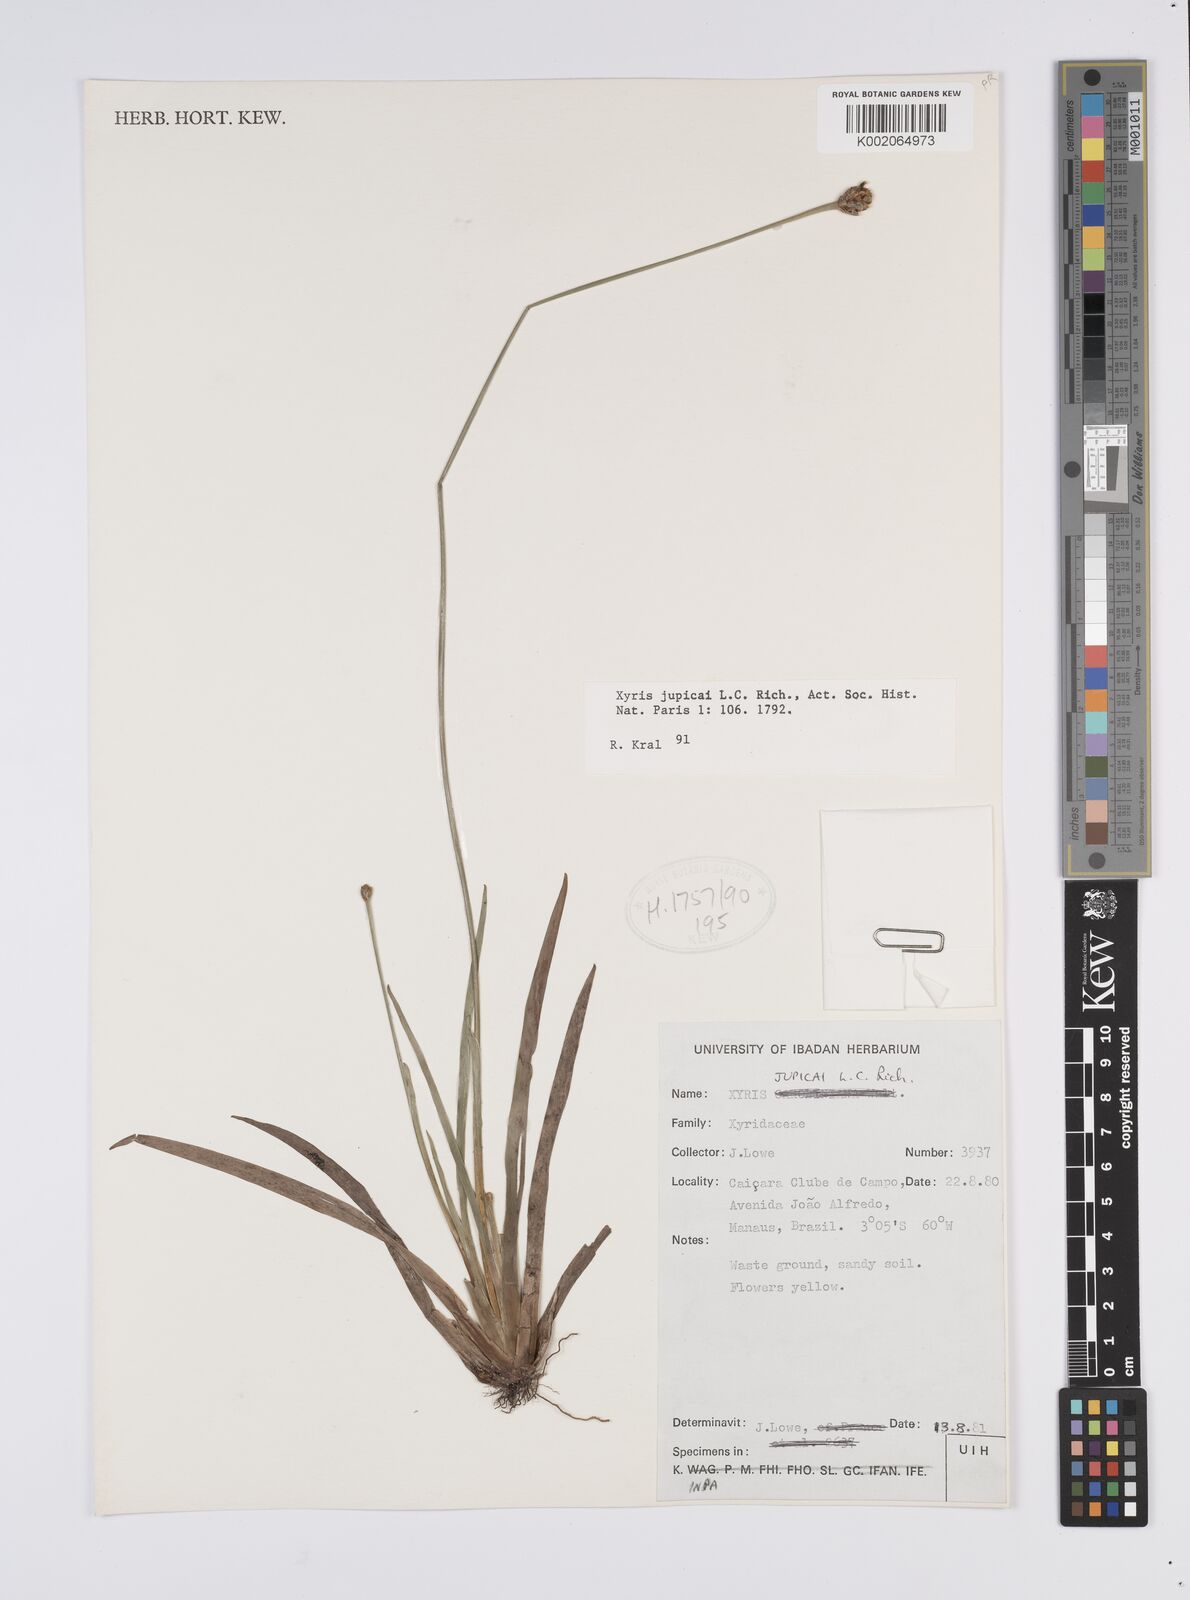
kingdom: Plantae
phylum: Tracheophyta
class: Liliopsida
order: Poales
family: Xyridaceae
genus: Xyris
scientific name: Xyris jupicai
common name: Richard's yelloweyed grass
